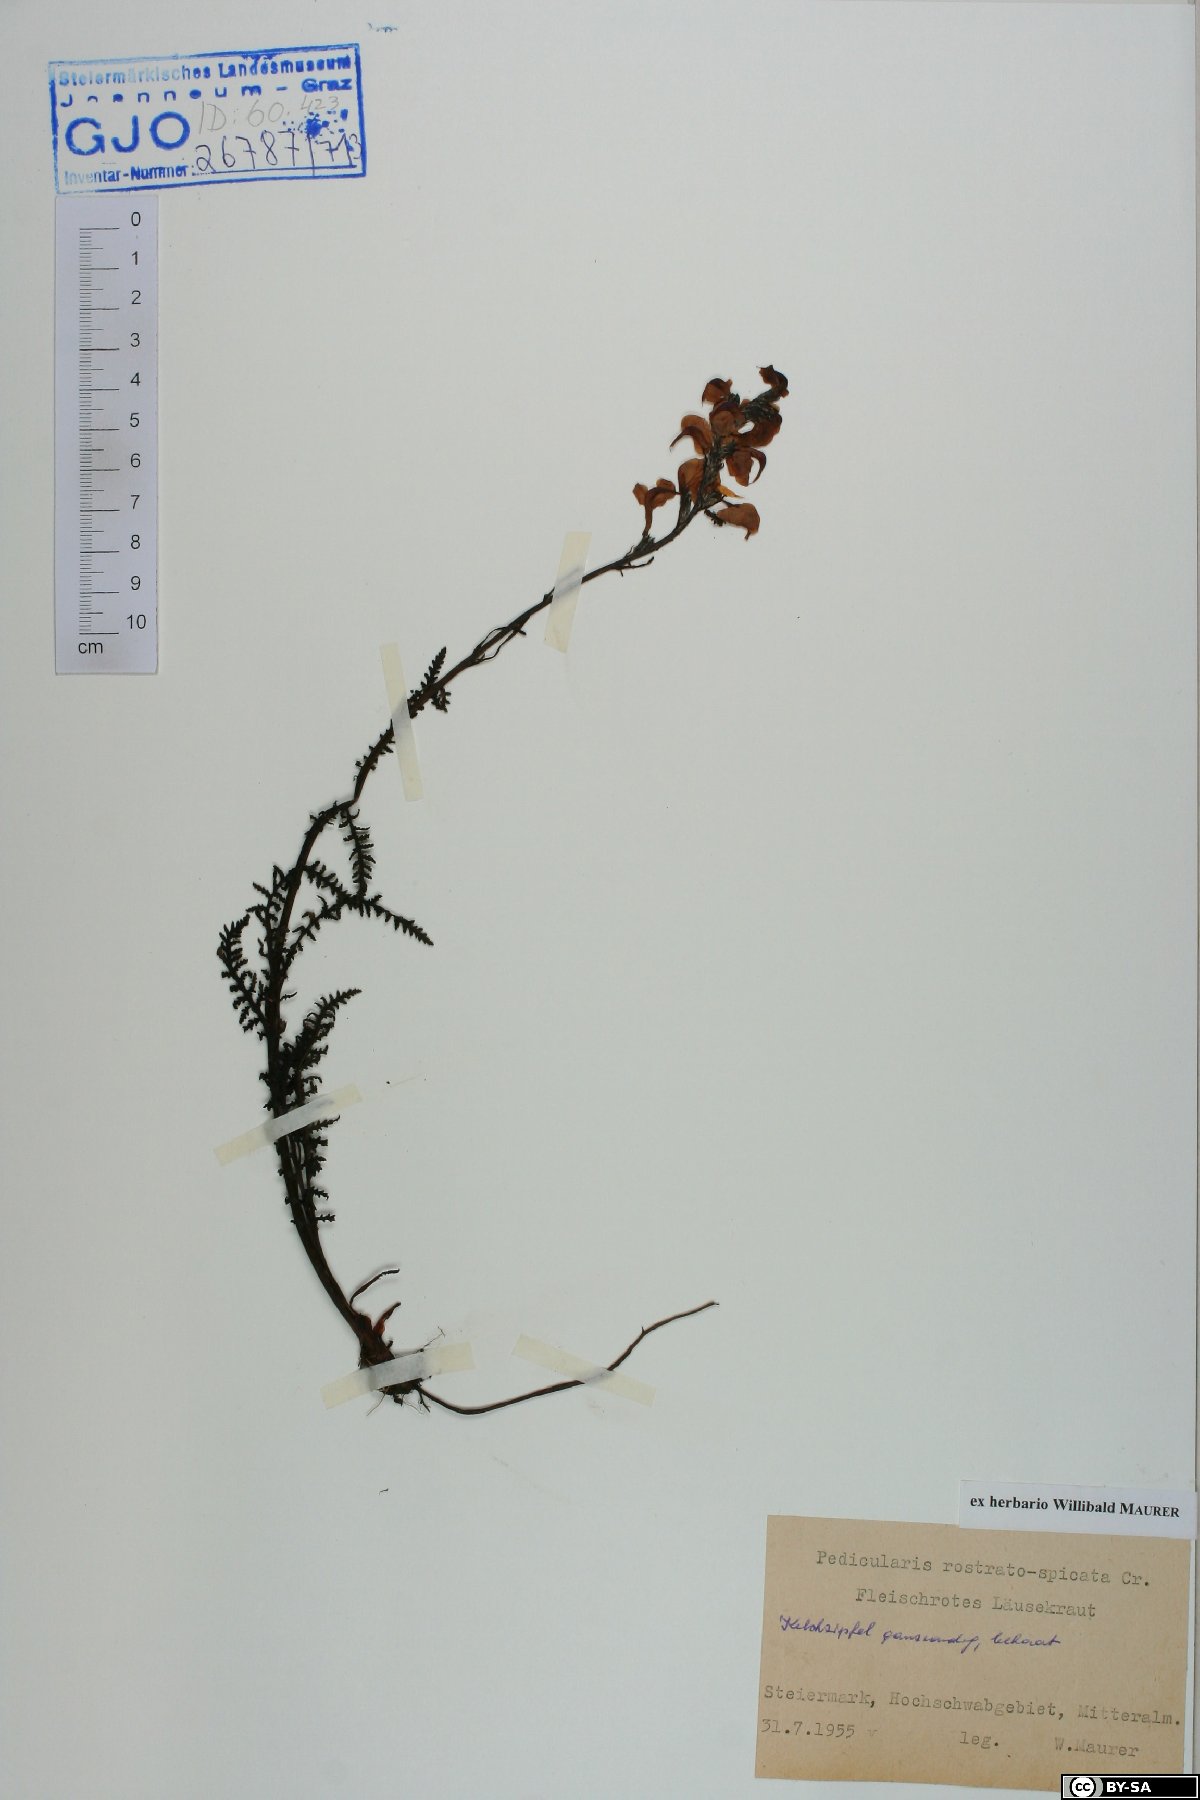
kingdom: Plantae
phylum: Tracheophyta
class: Magnoliopsida
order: Lamiales
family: Orobanchaceae
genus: Pedicularis
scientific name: Pedicularis rostratospicata
